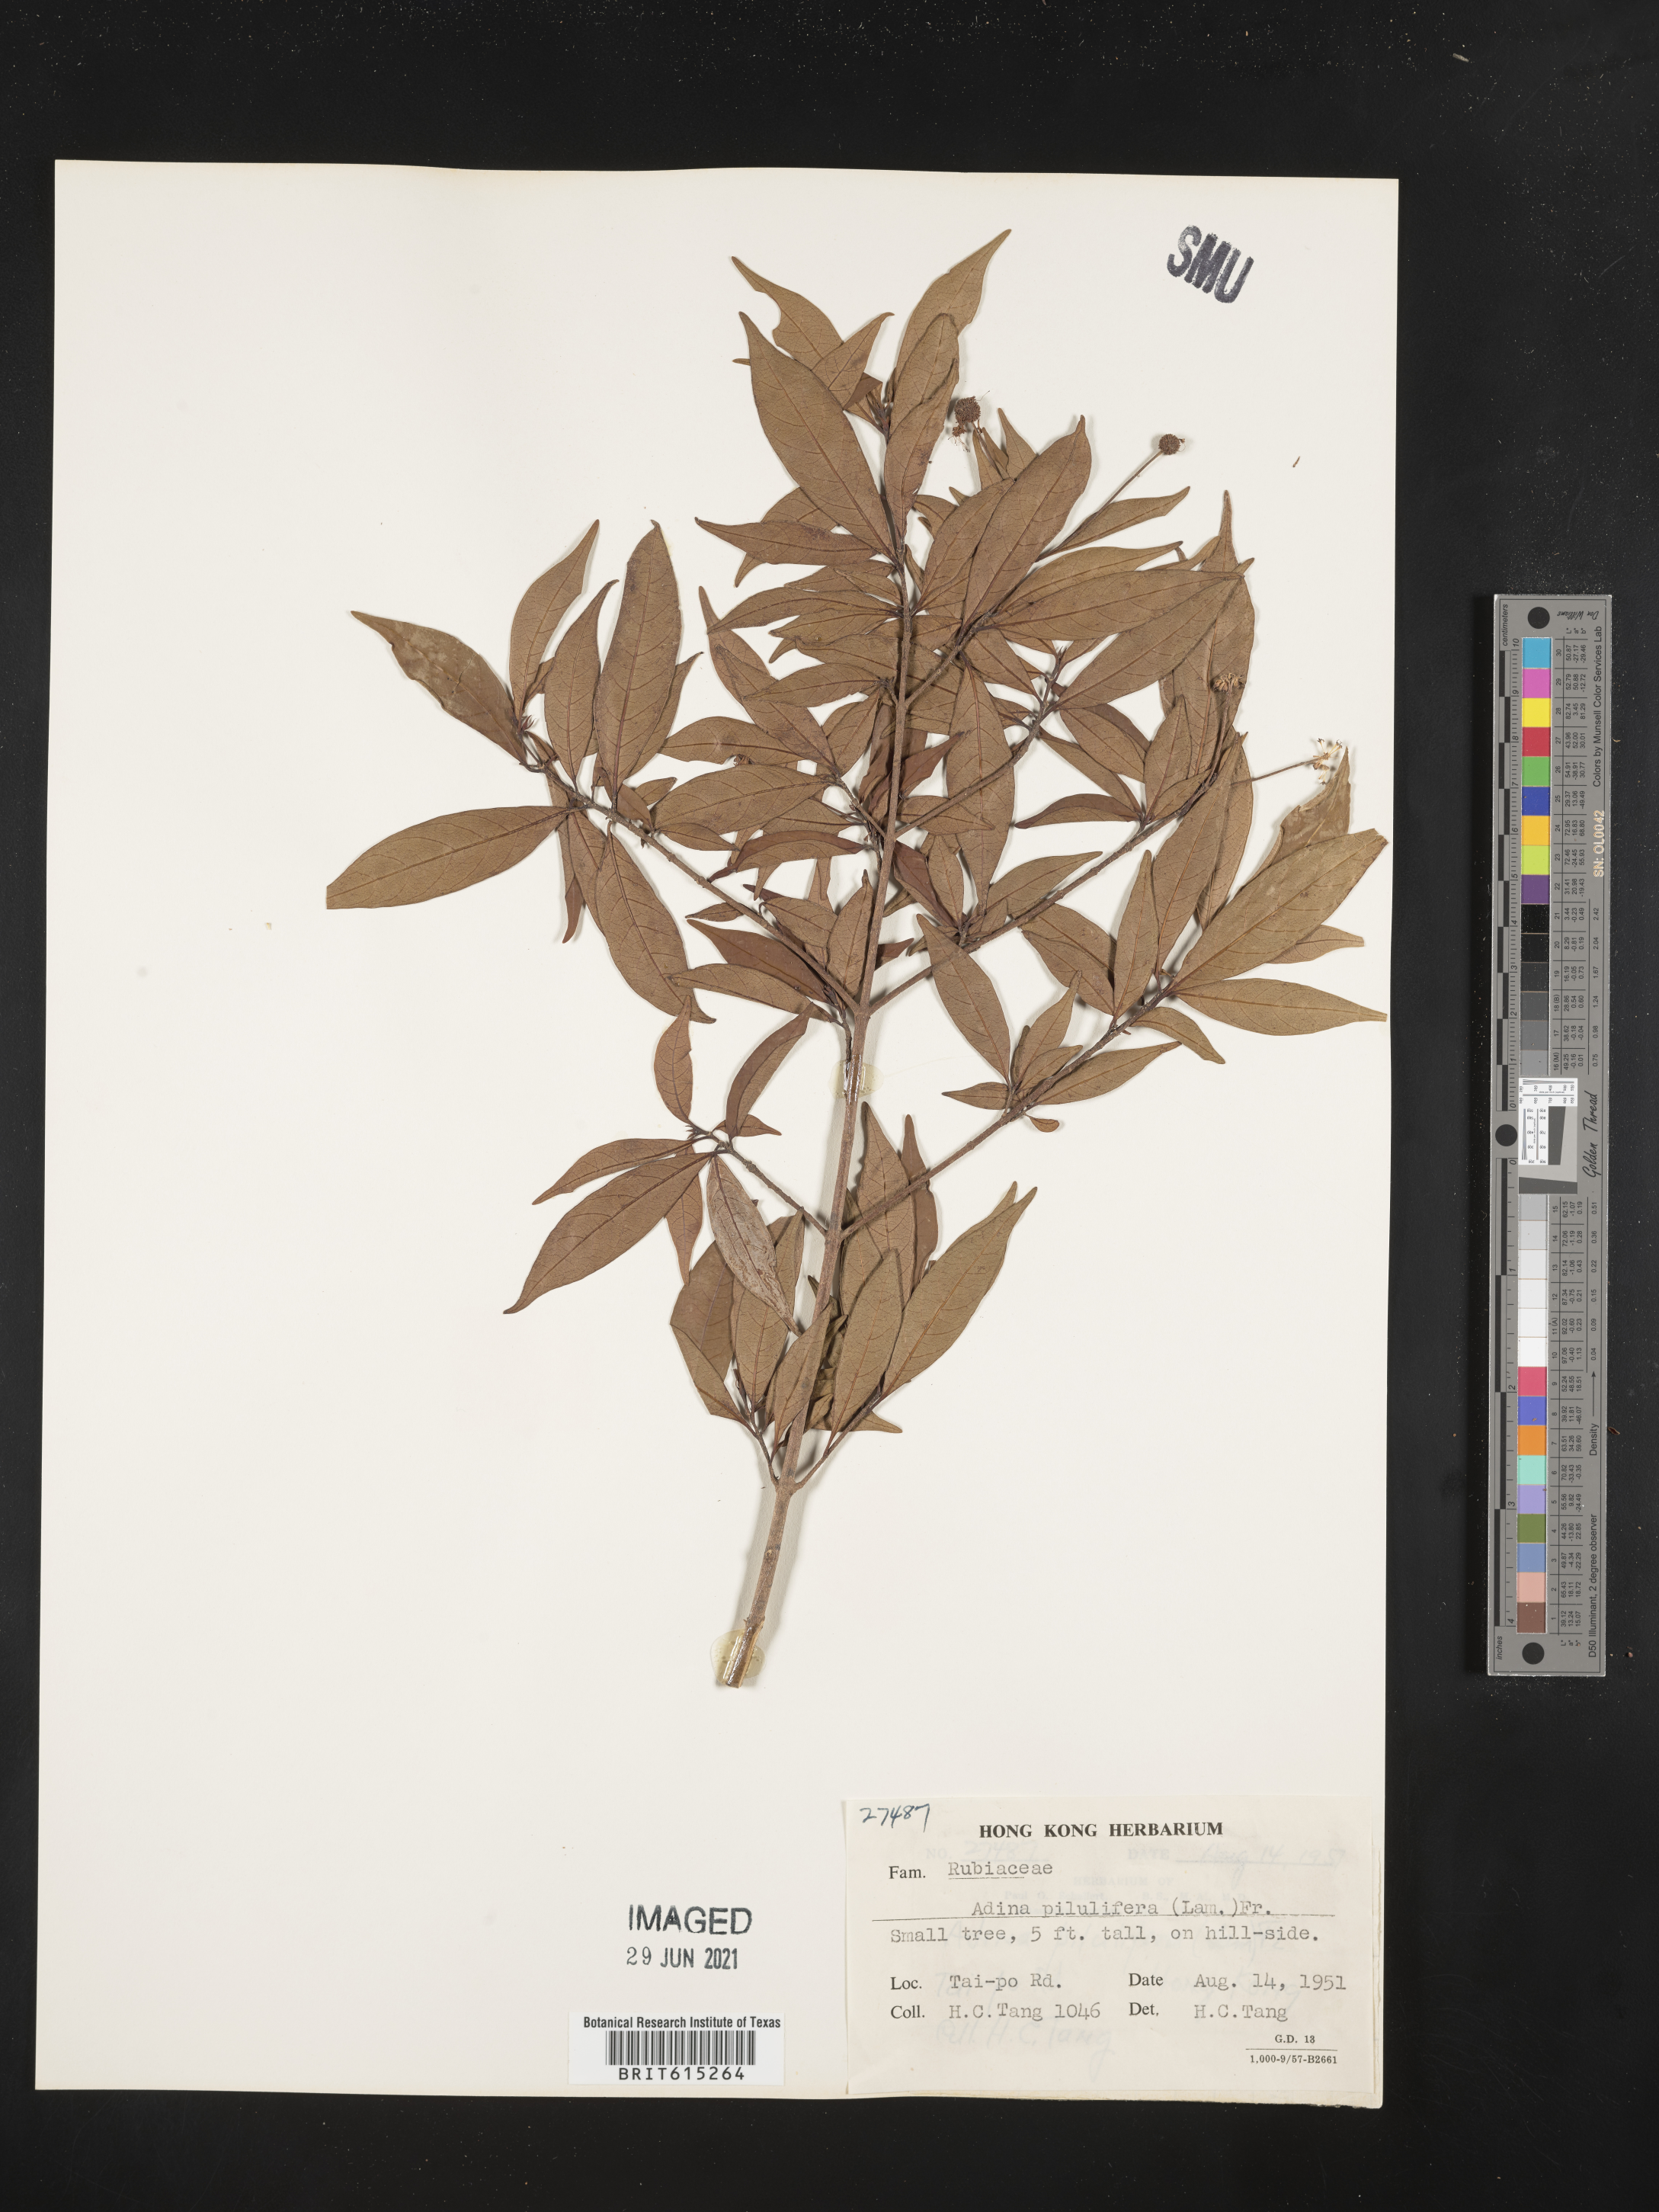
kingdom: Plantae
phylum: Tracheophyta
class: Magnoliopsida
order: Gentianales
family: Rubiaceae
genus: Adina
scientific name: Adina pilulifera
